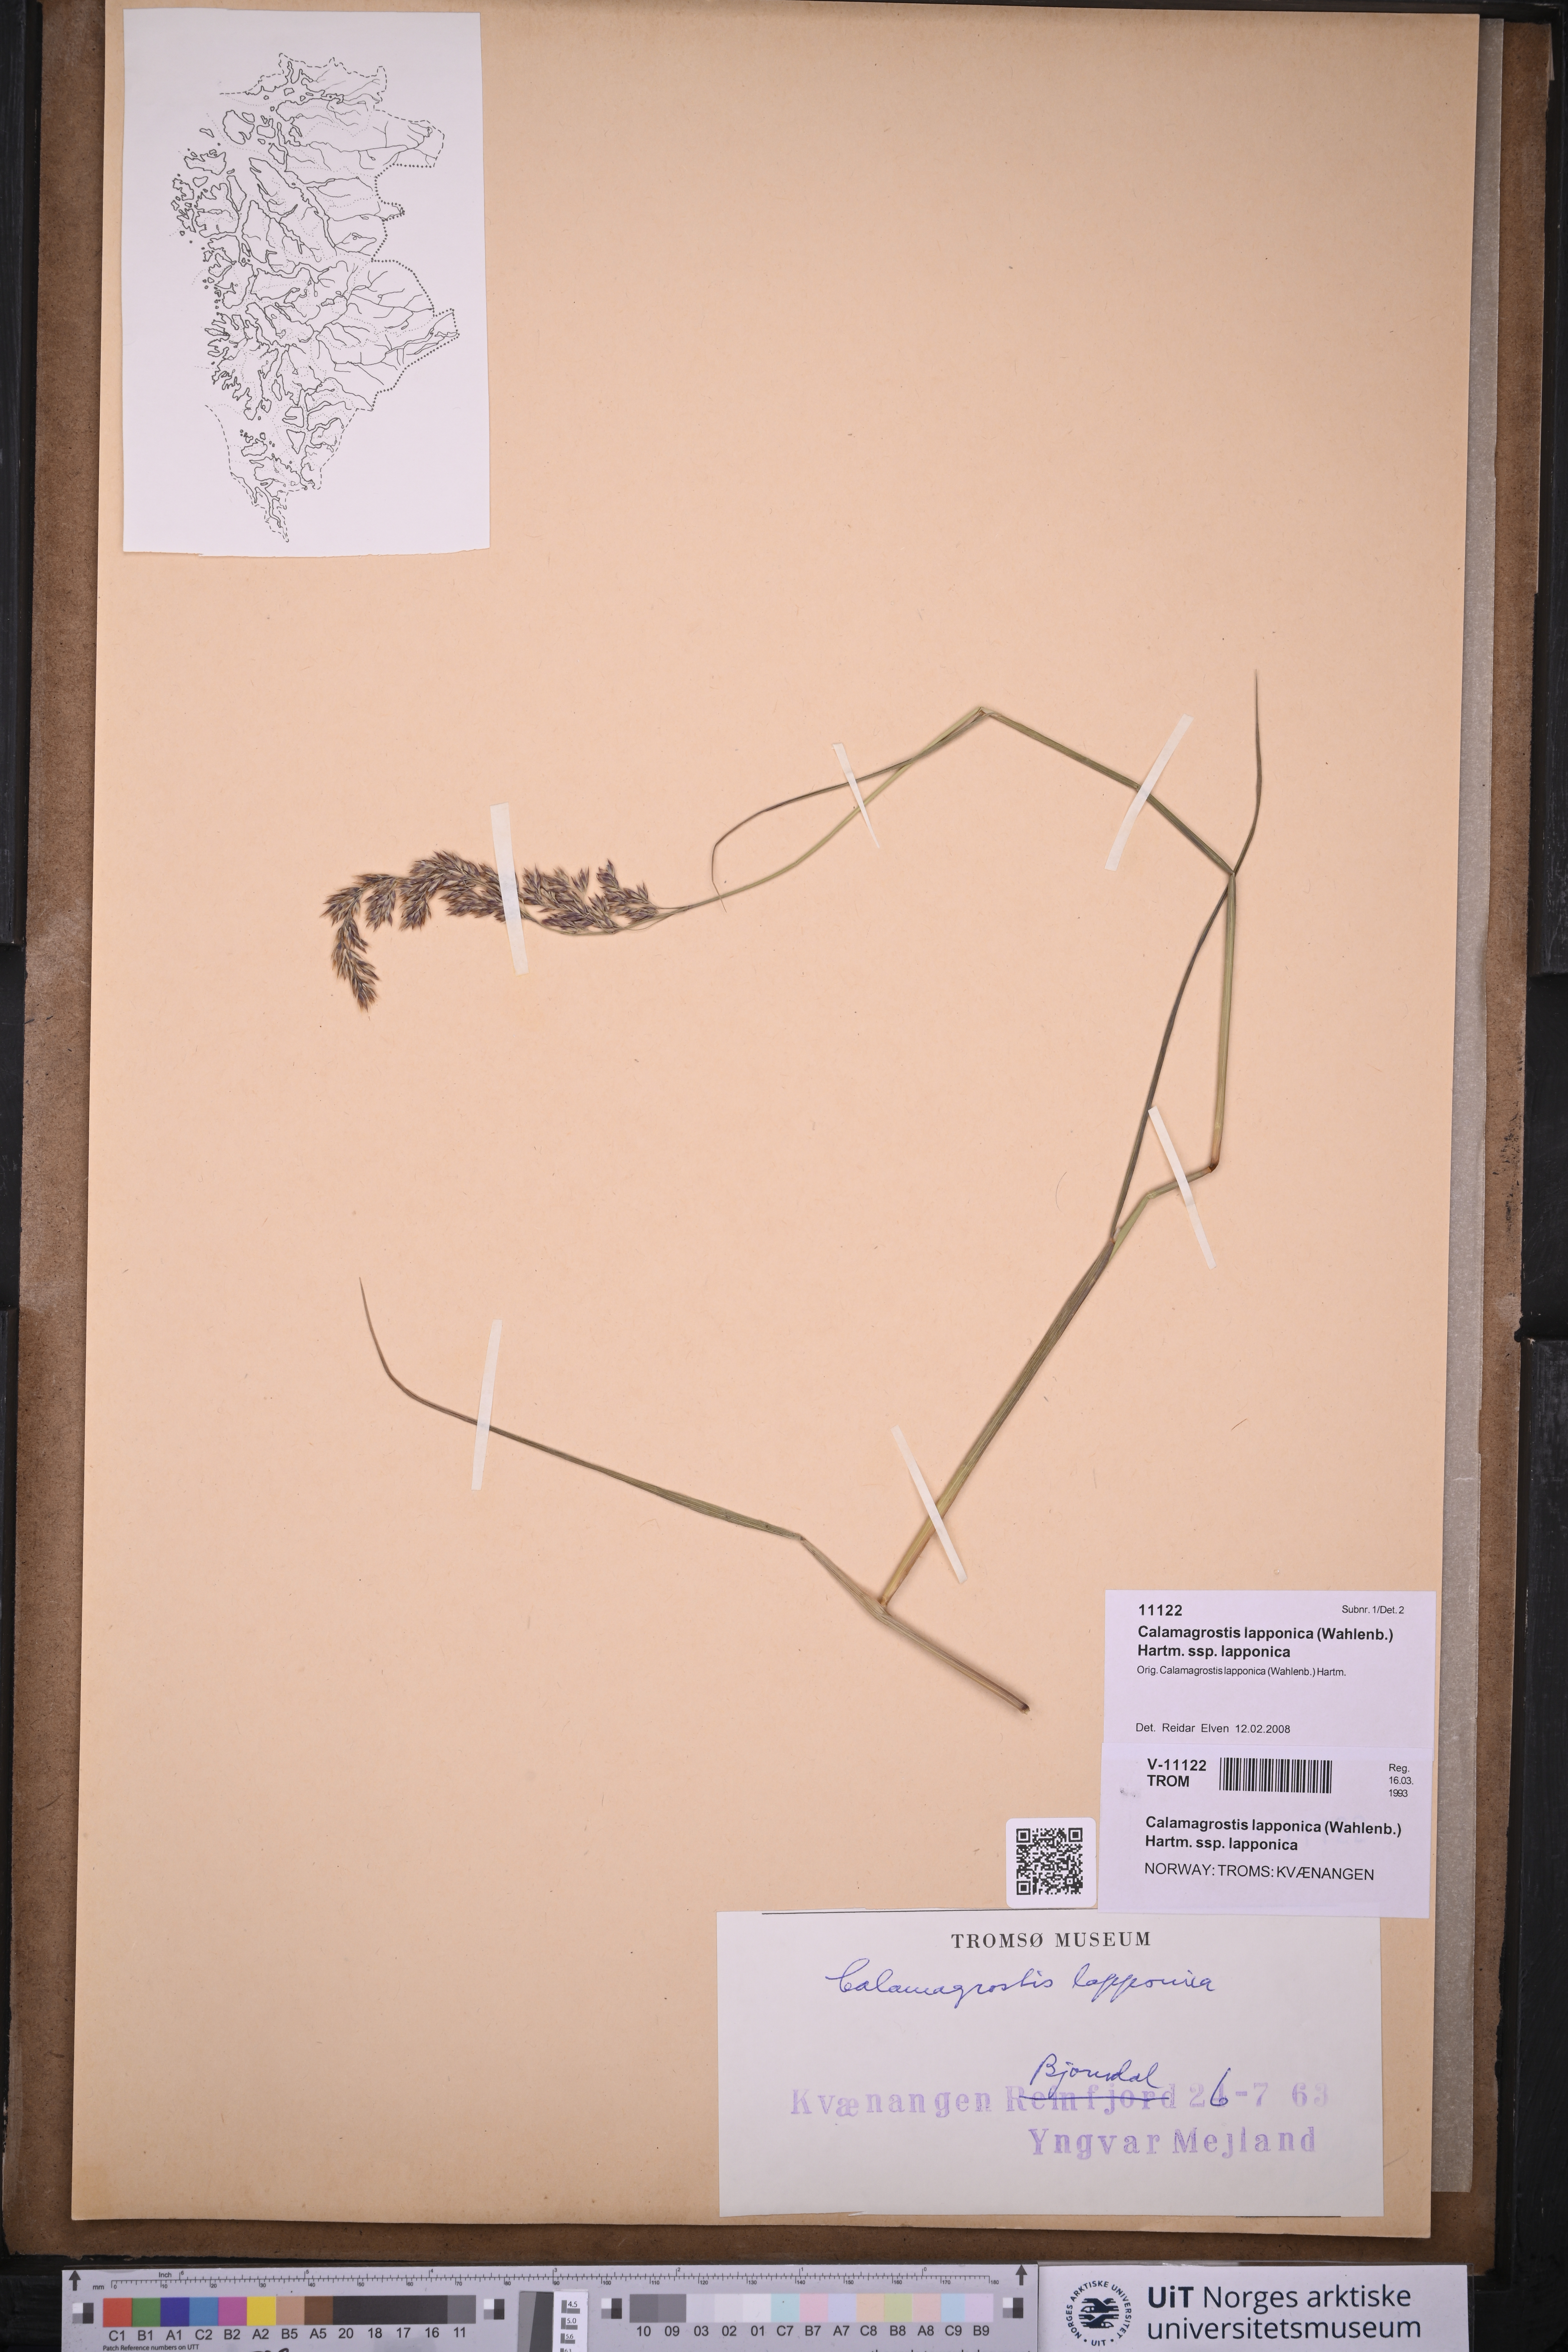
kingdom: Plantae
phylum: Tracheophyta
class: Liliopsida
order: Poales
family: Poaceae
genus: Calamagrostis
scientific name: Calamagrostis lapponica
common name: Lapland reedgrass
